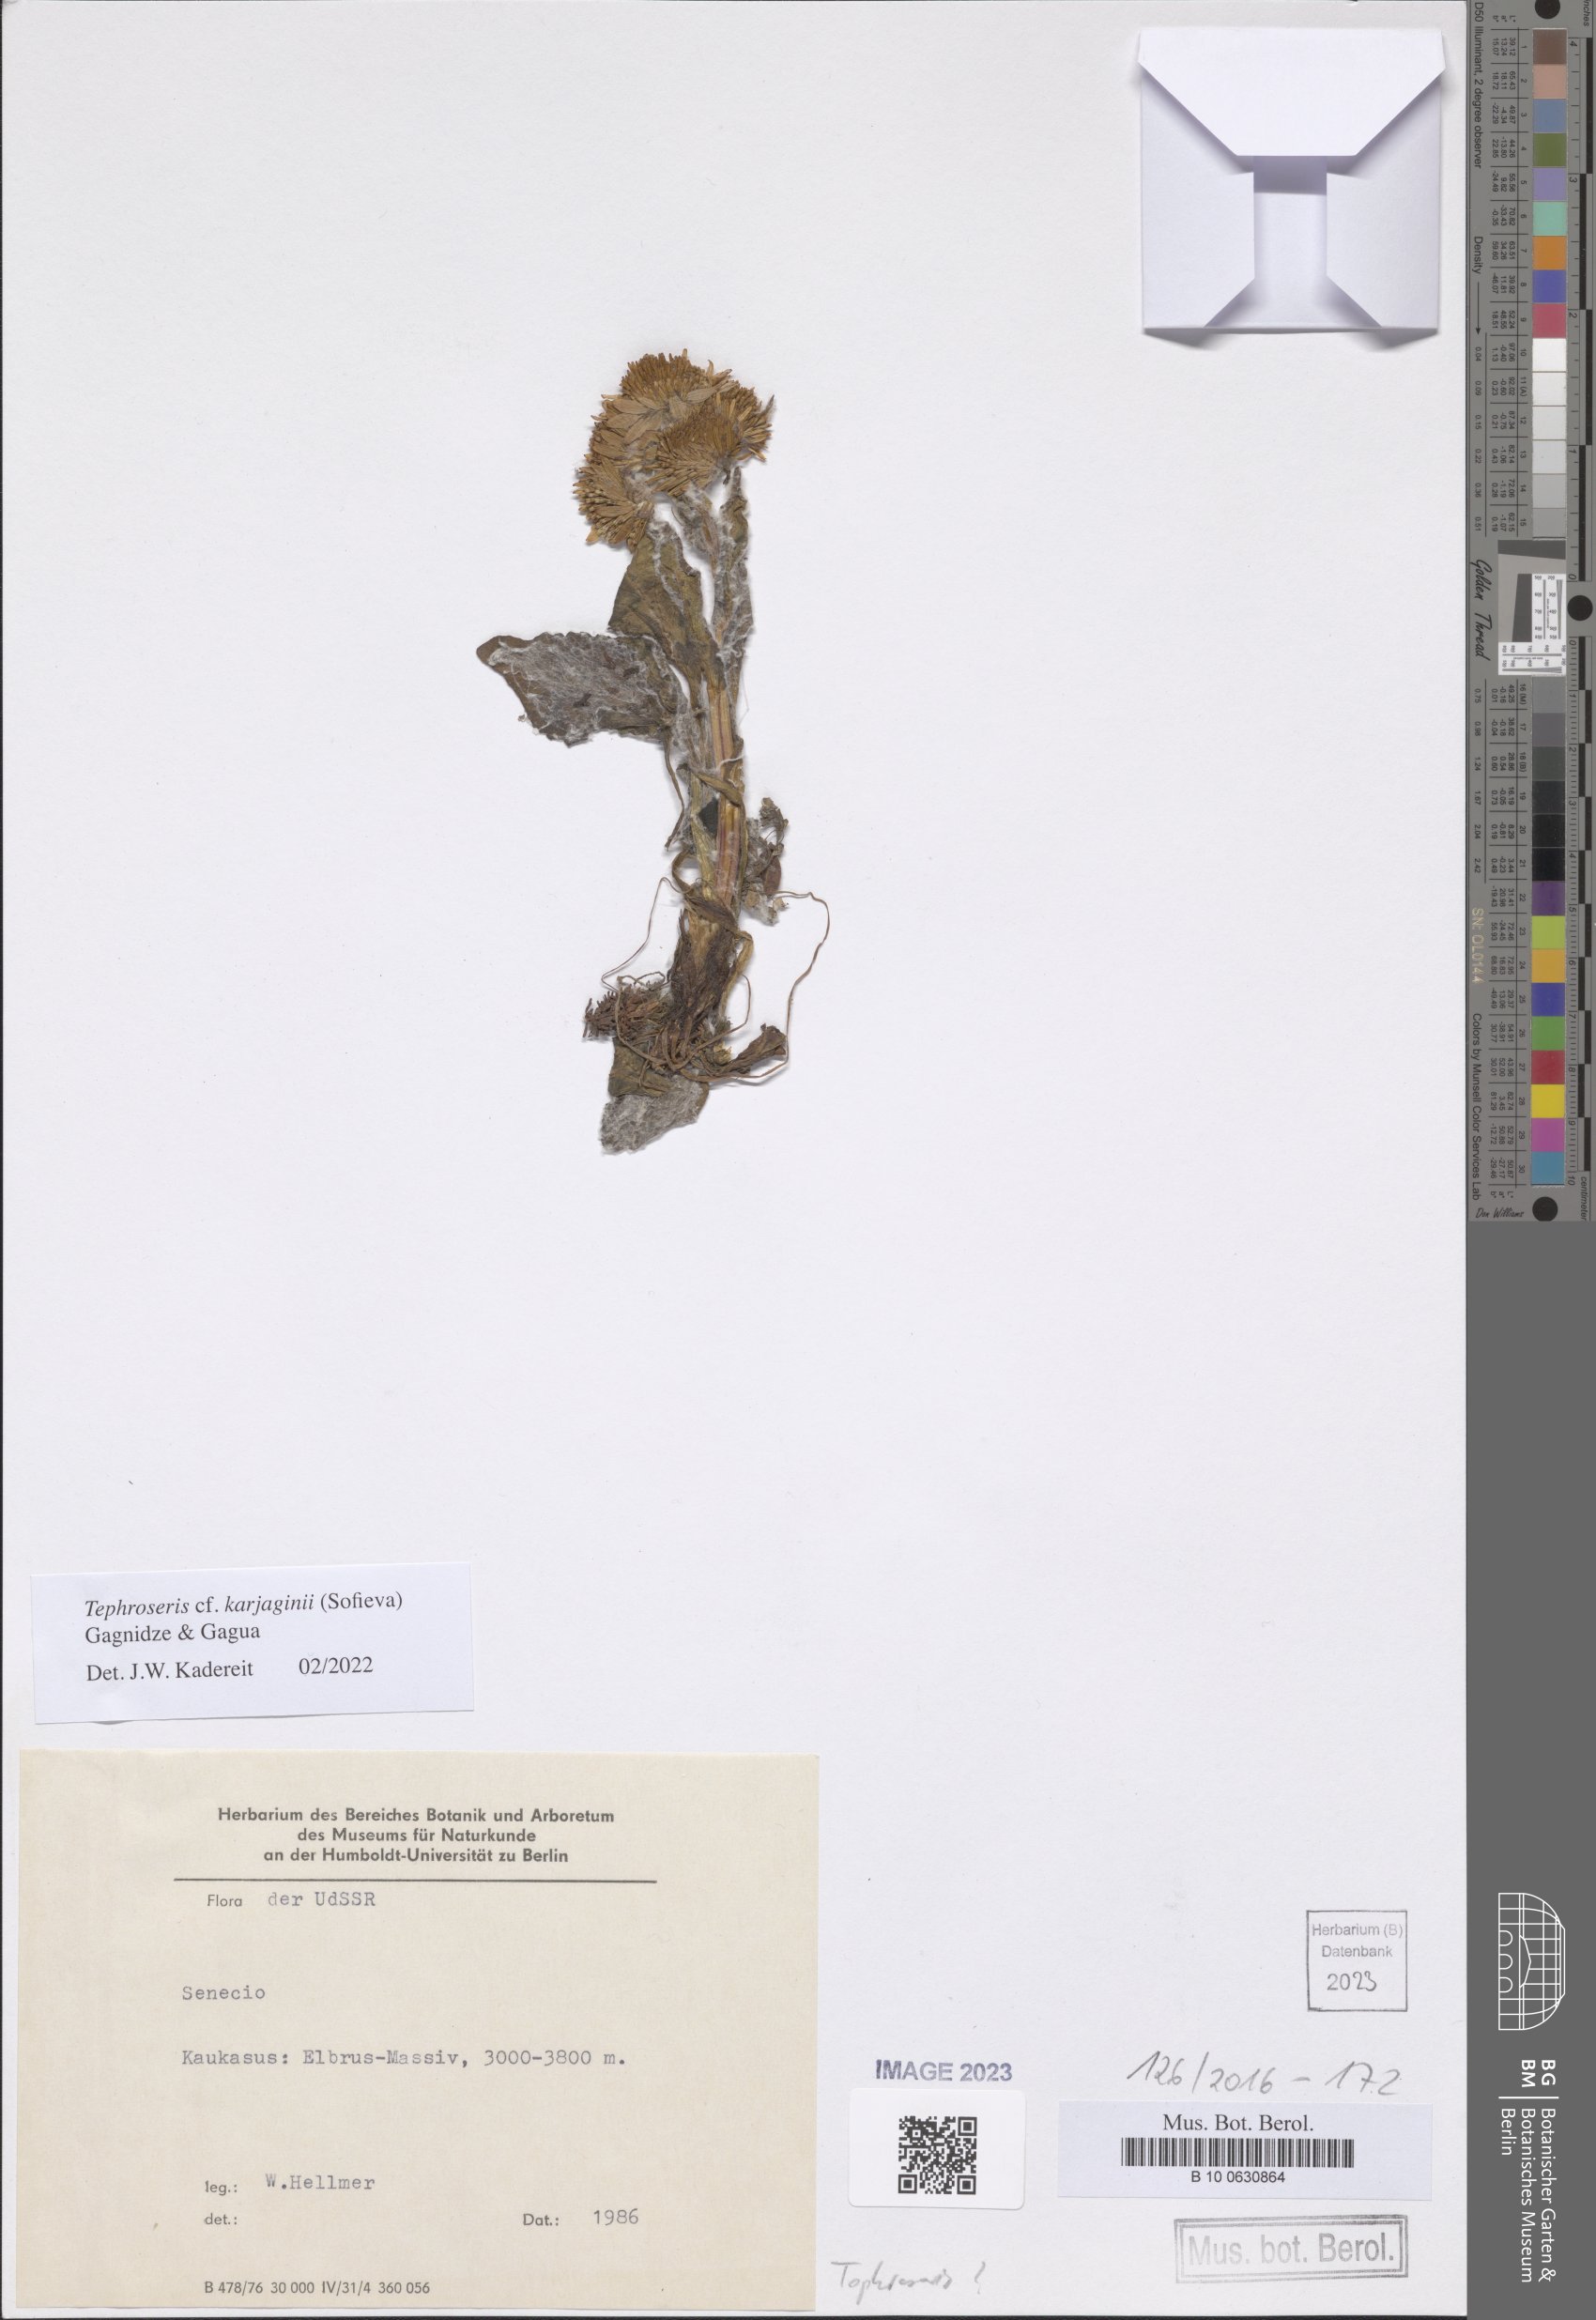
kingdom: Plantae
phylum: Tracheophyta
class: Magnoliopsida
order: Asterales
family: Asteraceae
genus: Tephroseris
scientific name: Tephroseris integrifolia
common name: Field fleawort
